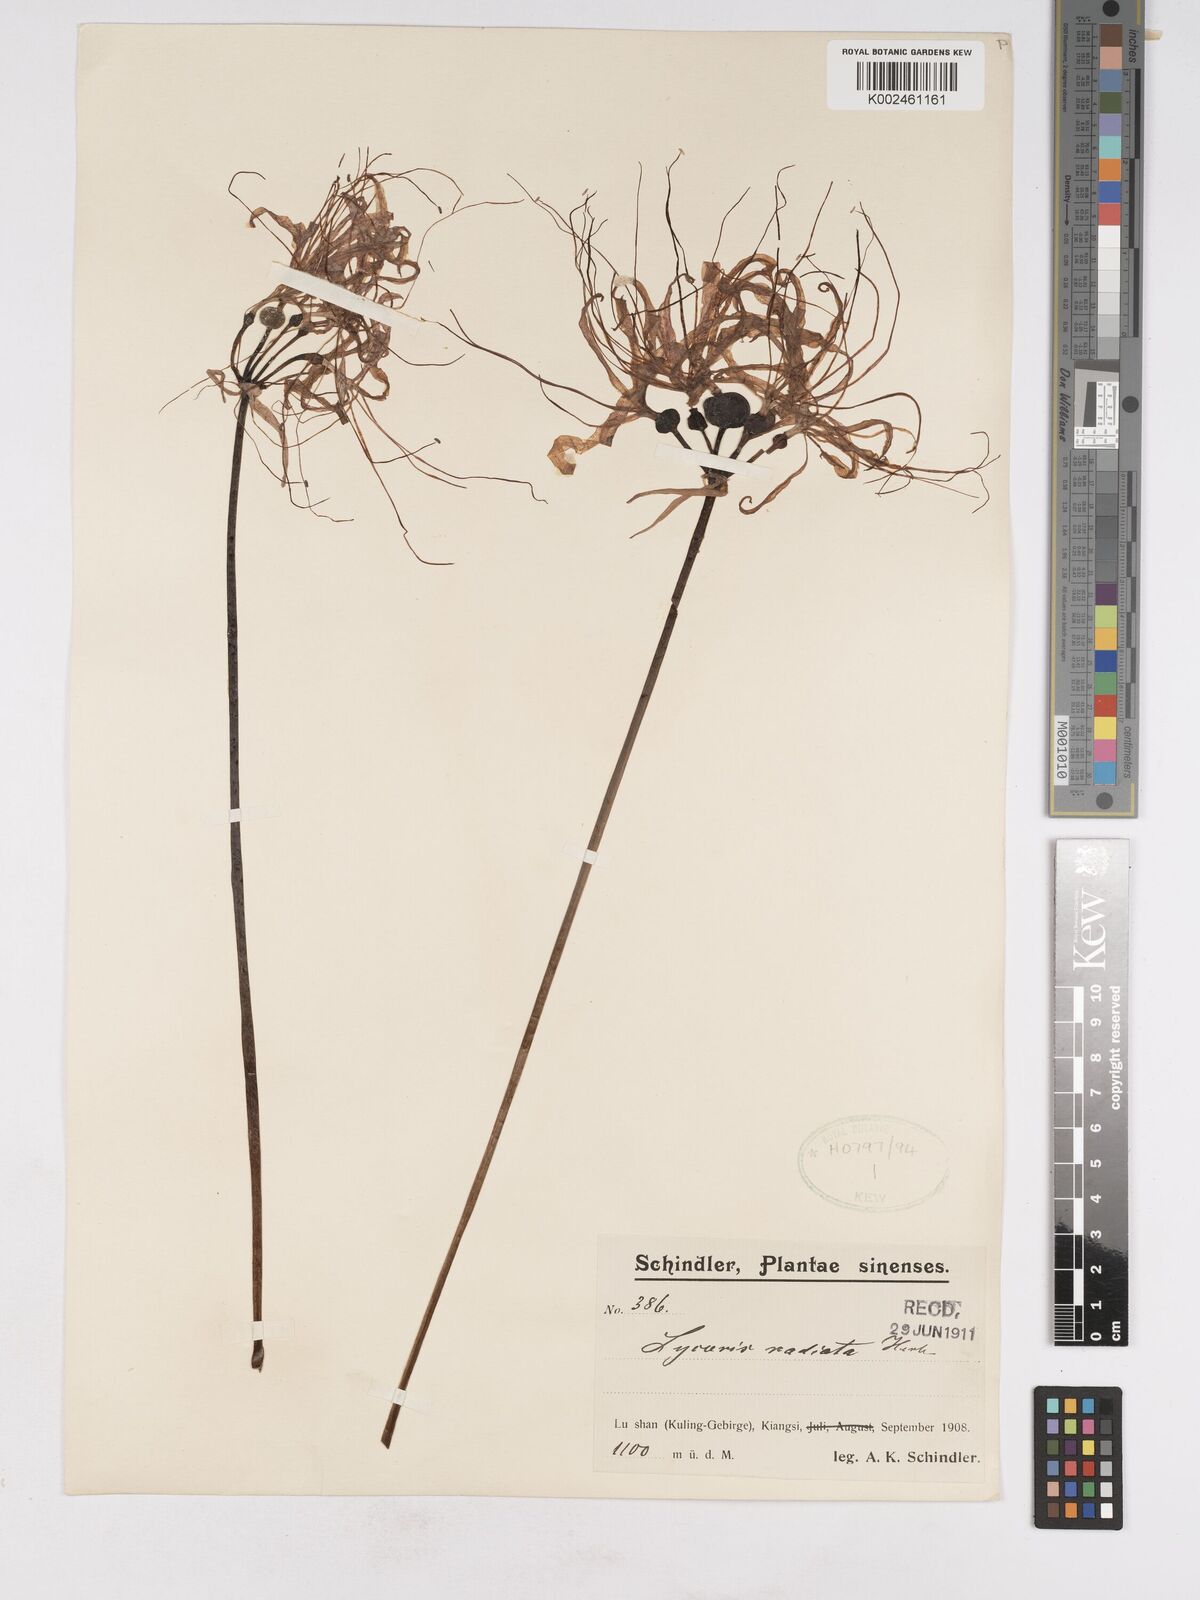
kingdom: Plantae
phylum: Tracheophyta
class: Liliopsida
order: Asparagales
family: Amaryllidaceae
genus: Lycoris
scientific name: Lycoris radiata
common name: Red spider lily
